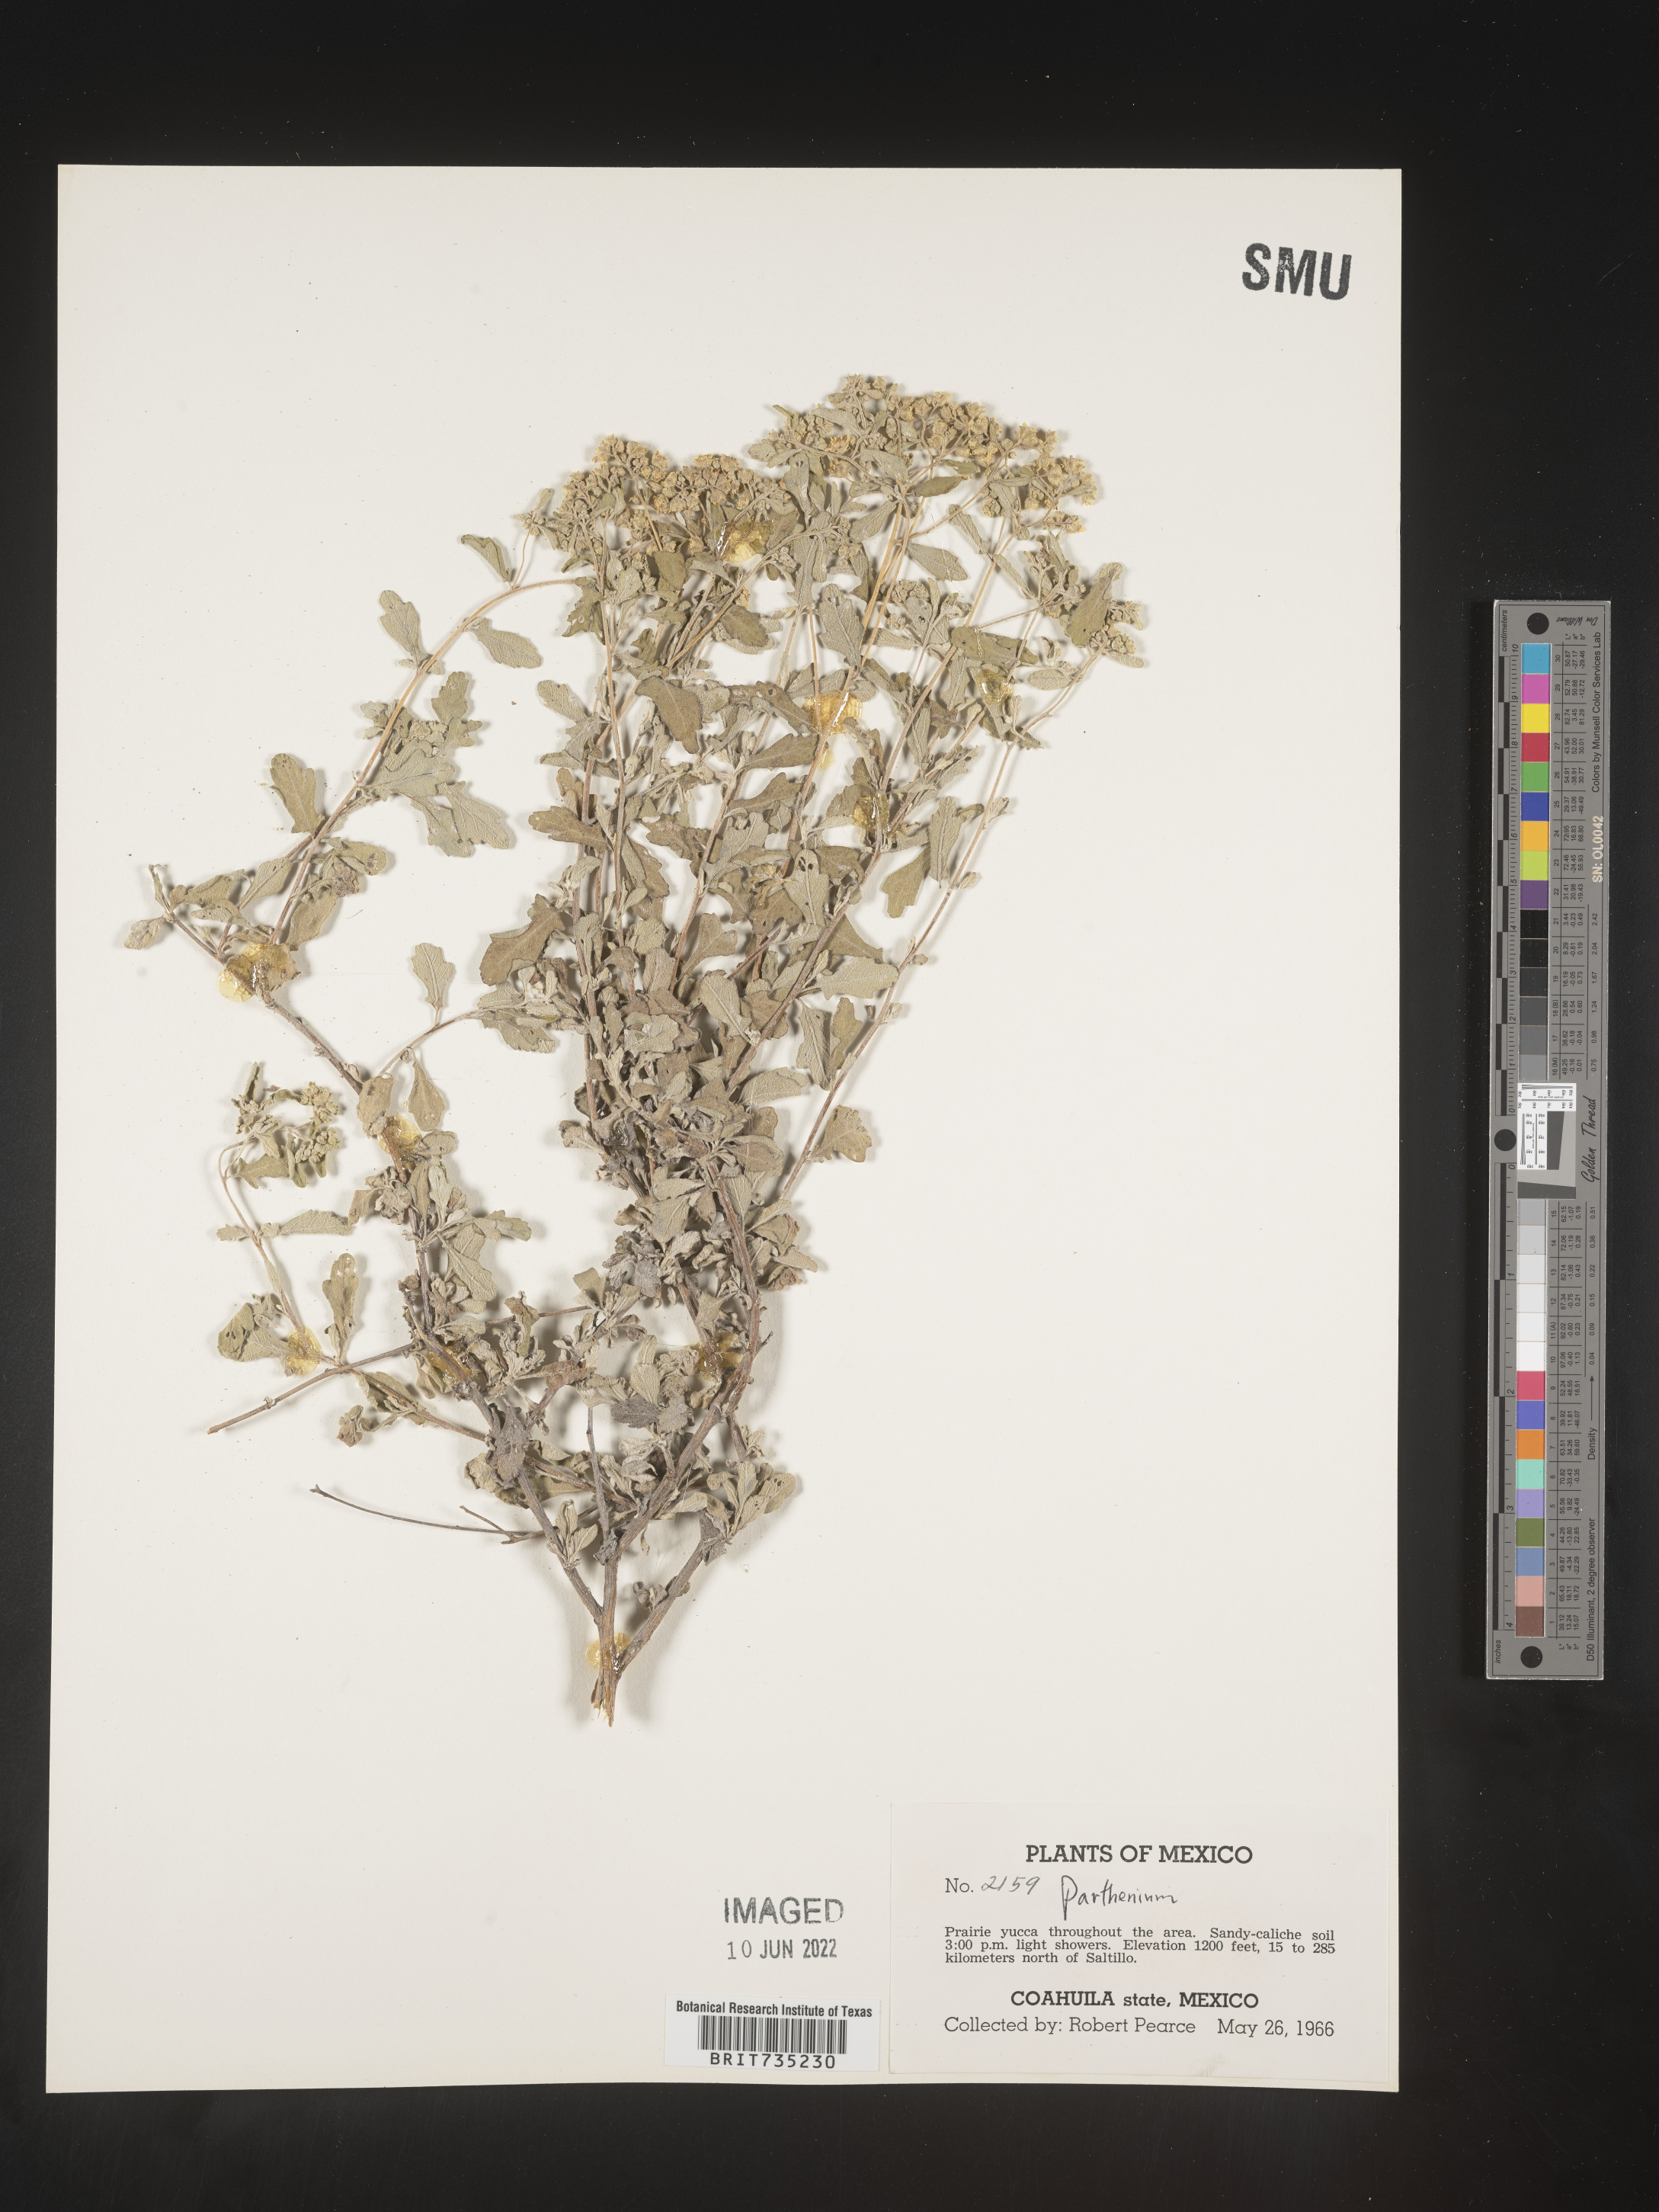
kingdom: Plantae
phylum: Tracheophyta
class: Magnoliopsida
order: Asterales
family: Asteraceae
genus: Parthenium
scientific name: Parthenium
